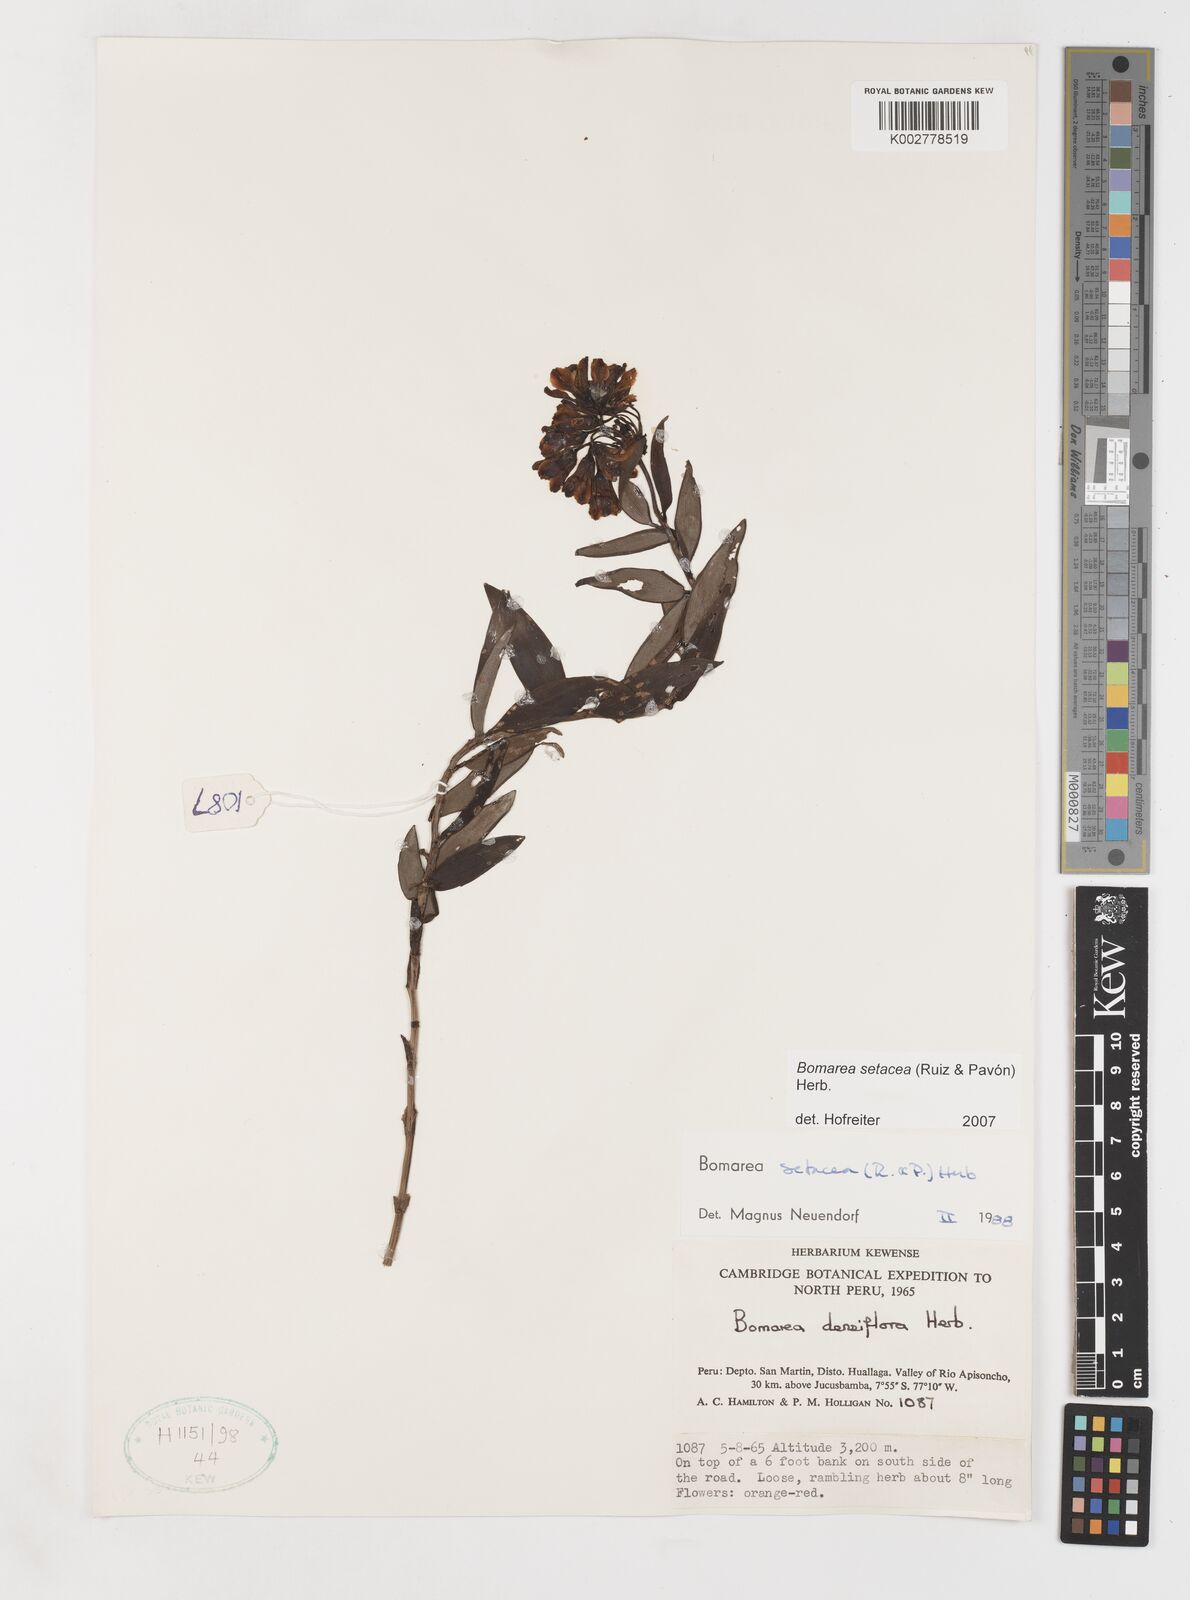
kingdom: Plantae
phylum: Tracheophyta
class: Liliopsida
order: Liliales
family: Alstroemeriaceae
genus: Bomarea
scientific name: Bomarea setacea
